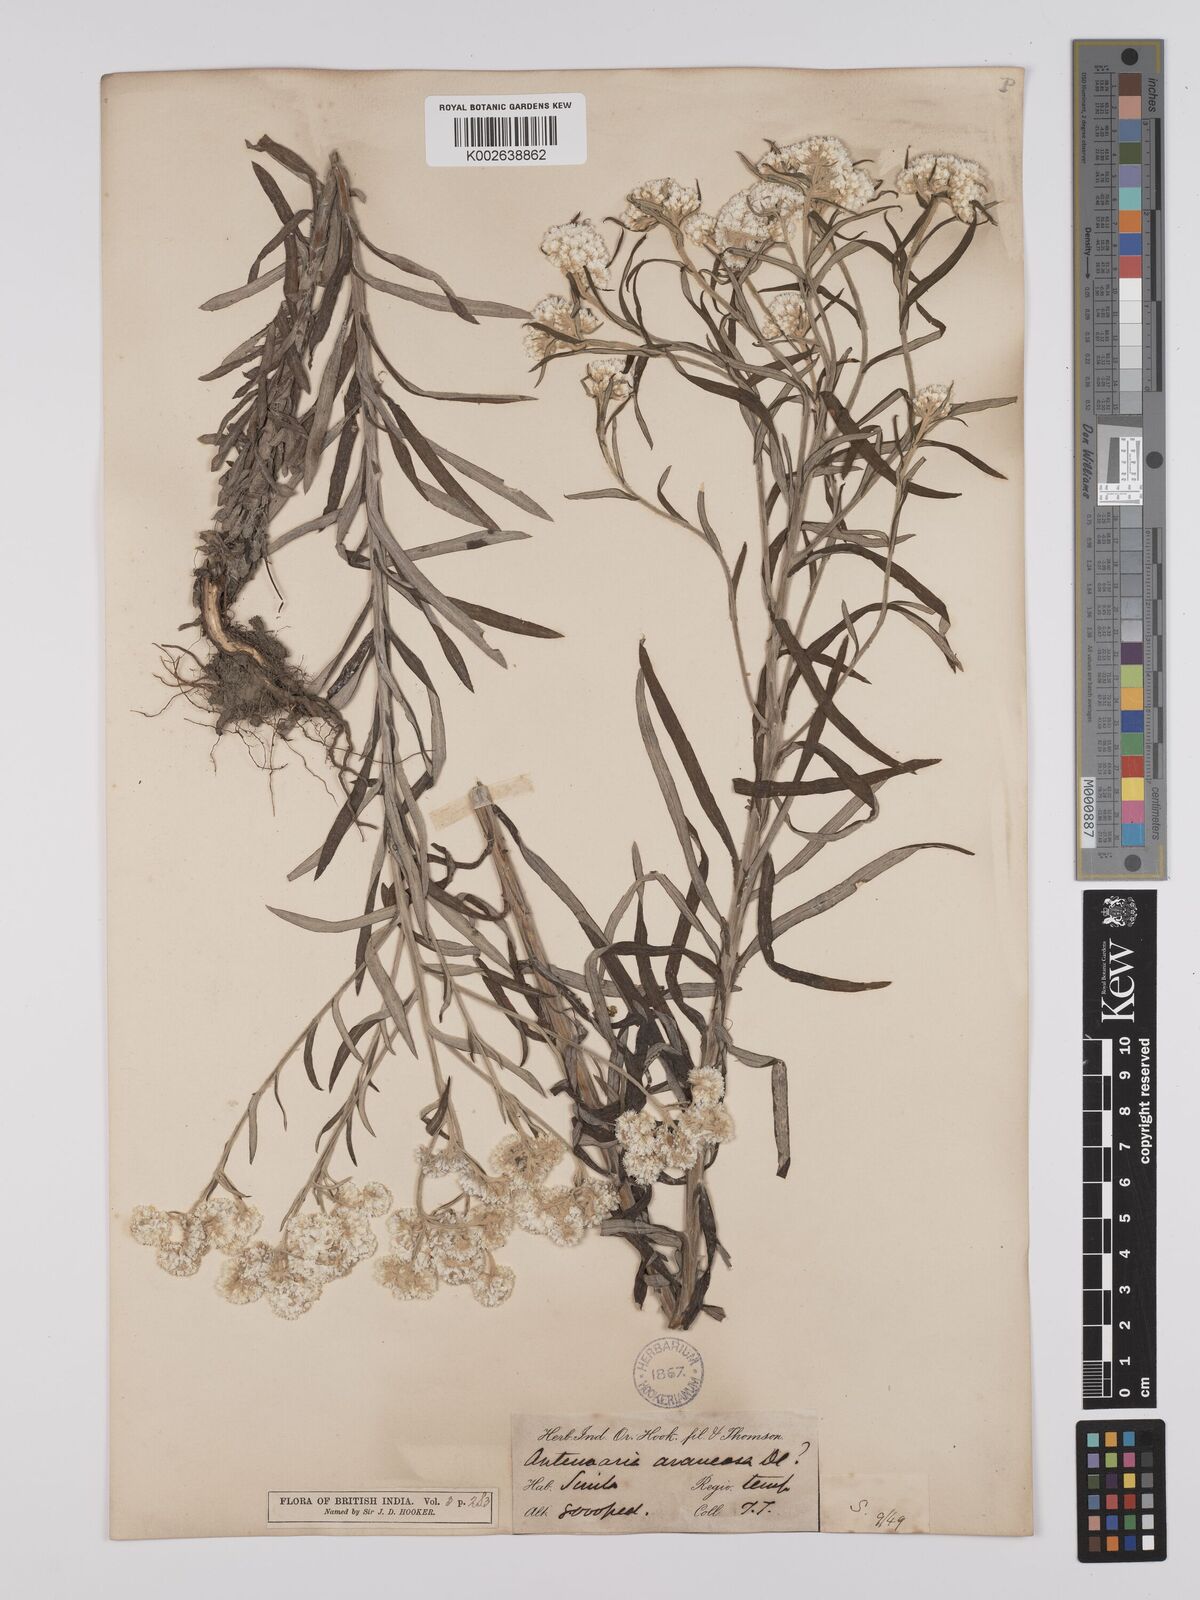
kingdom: Plantae
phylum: Tracheophyta
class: Magnoliopsida
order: Asterales
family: Asteraceae
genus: Anaphalis
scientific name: Anaphalis busua
